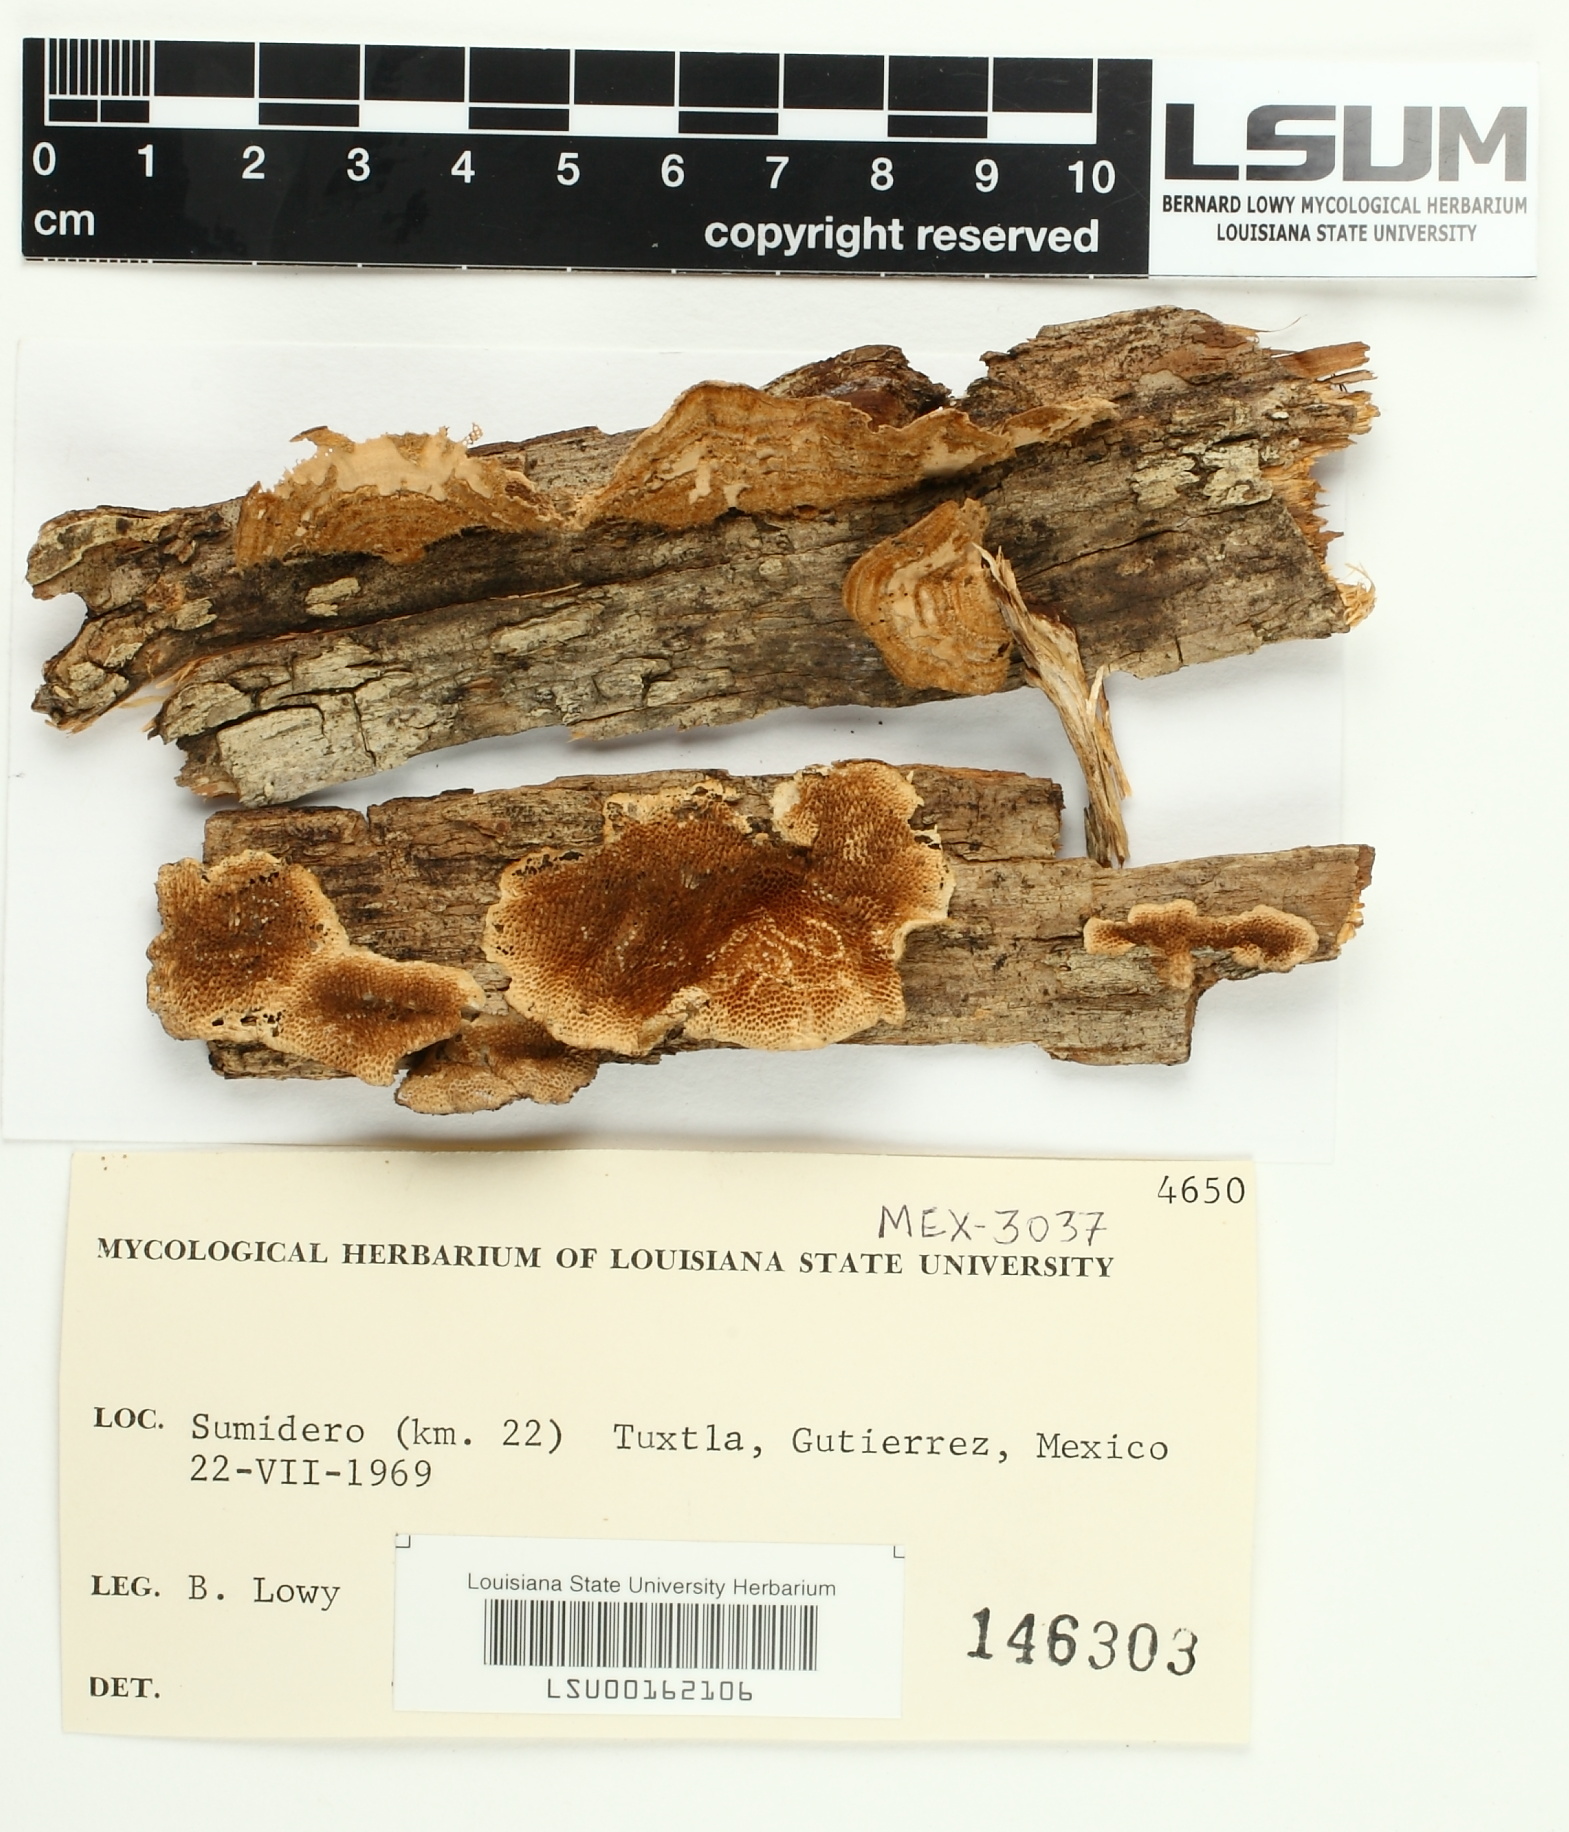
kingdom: Fungi
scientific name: Fungi
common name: Fungi
